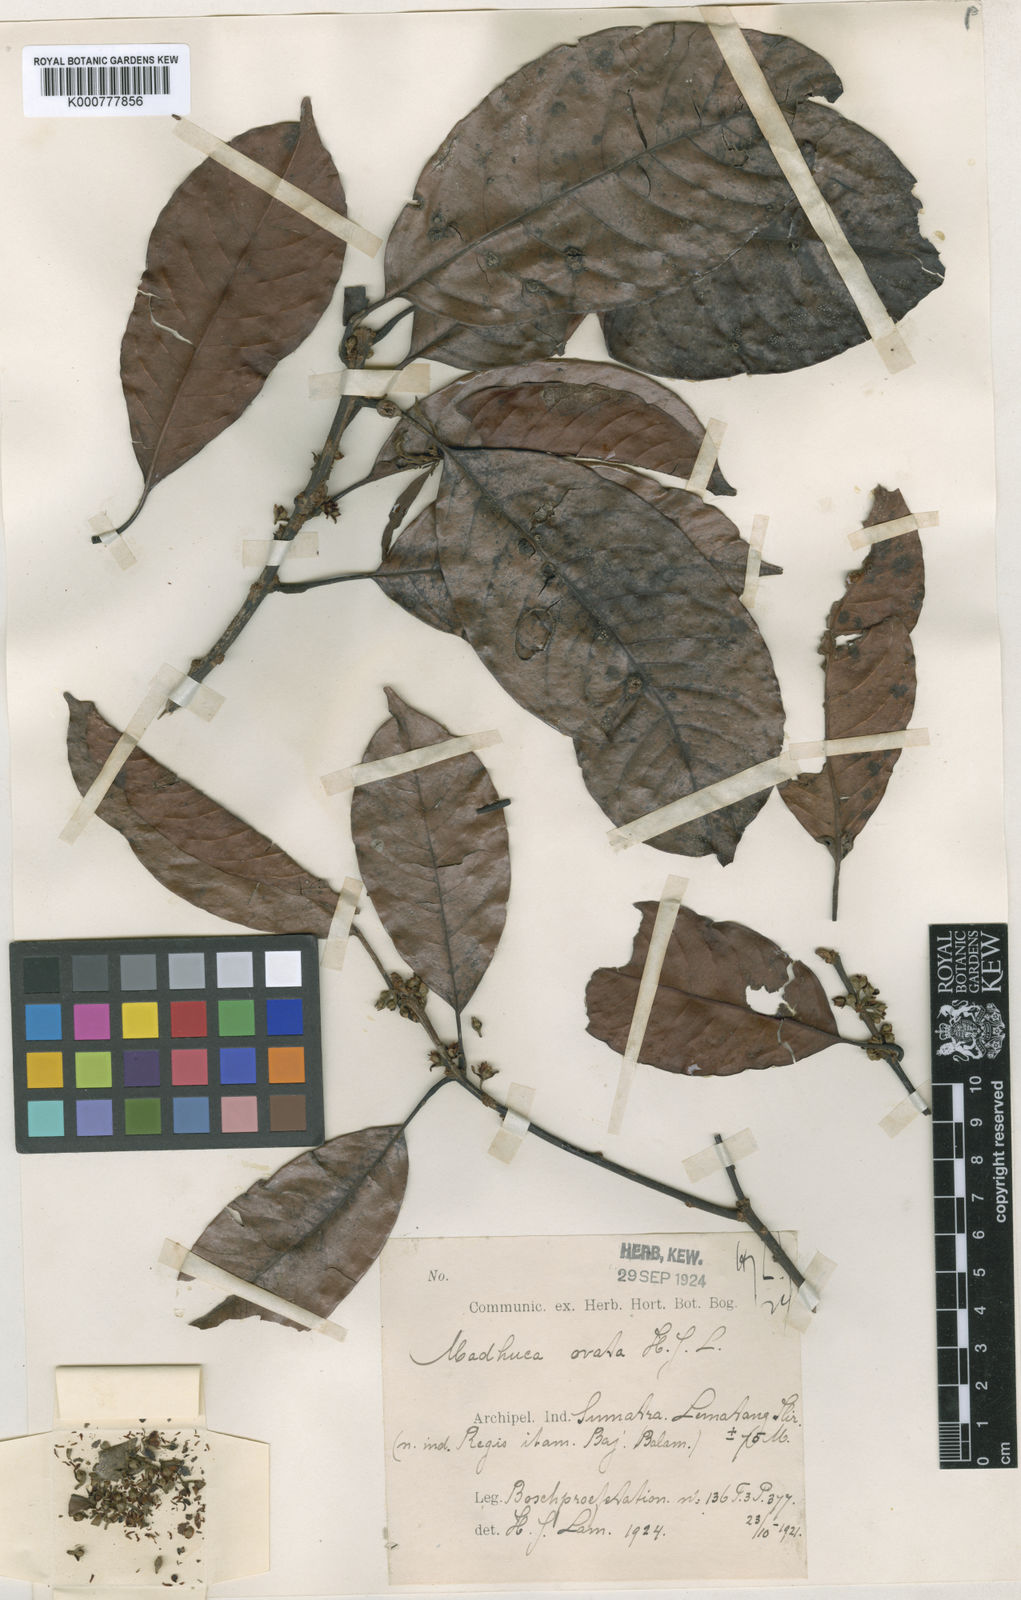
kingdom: Plantae
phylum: Tracheophyta
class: Magnoliopsida
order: Ericales
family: Sapotaceae
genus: Madhuca
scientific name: Madhuca ovata
